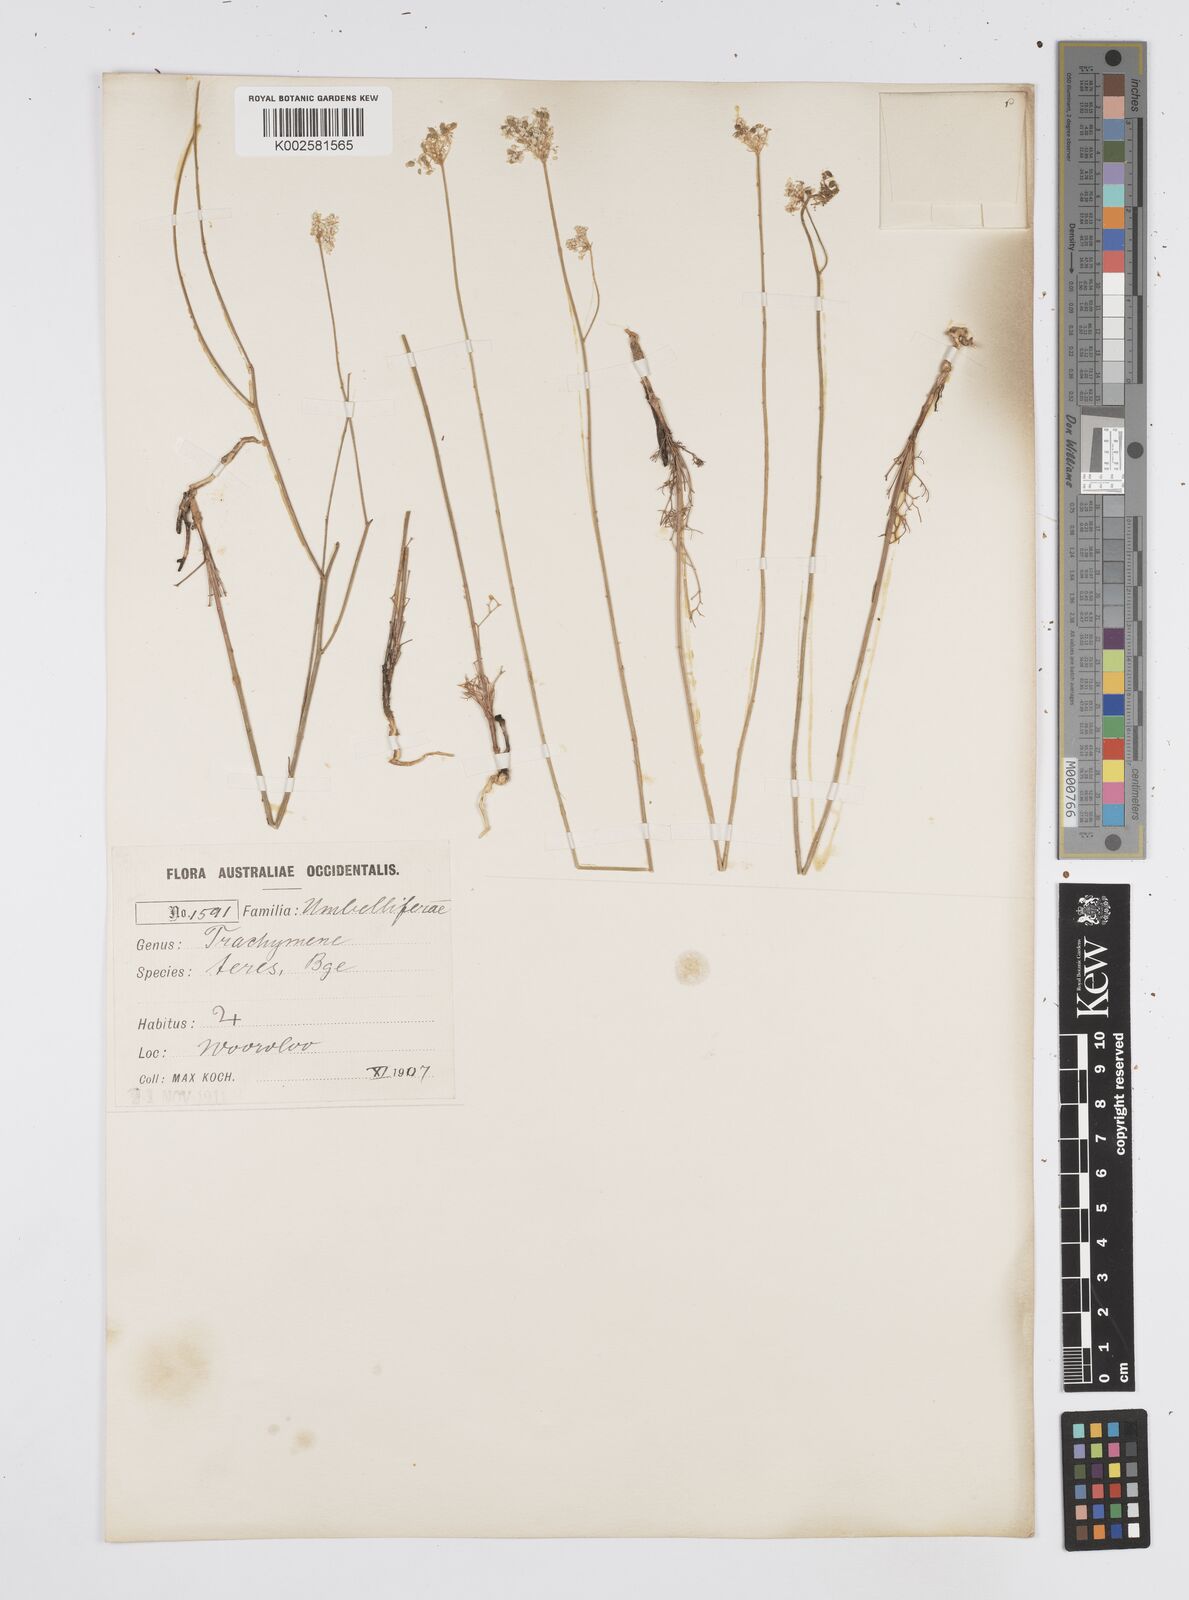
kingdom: Plantae
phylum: Tracheophyta
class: Magnoliopsida
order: Apiales
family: Apiaceae
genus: Platysace
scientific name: Platysace juncea
